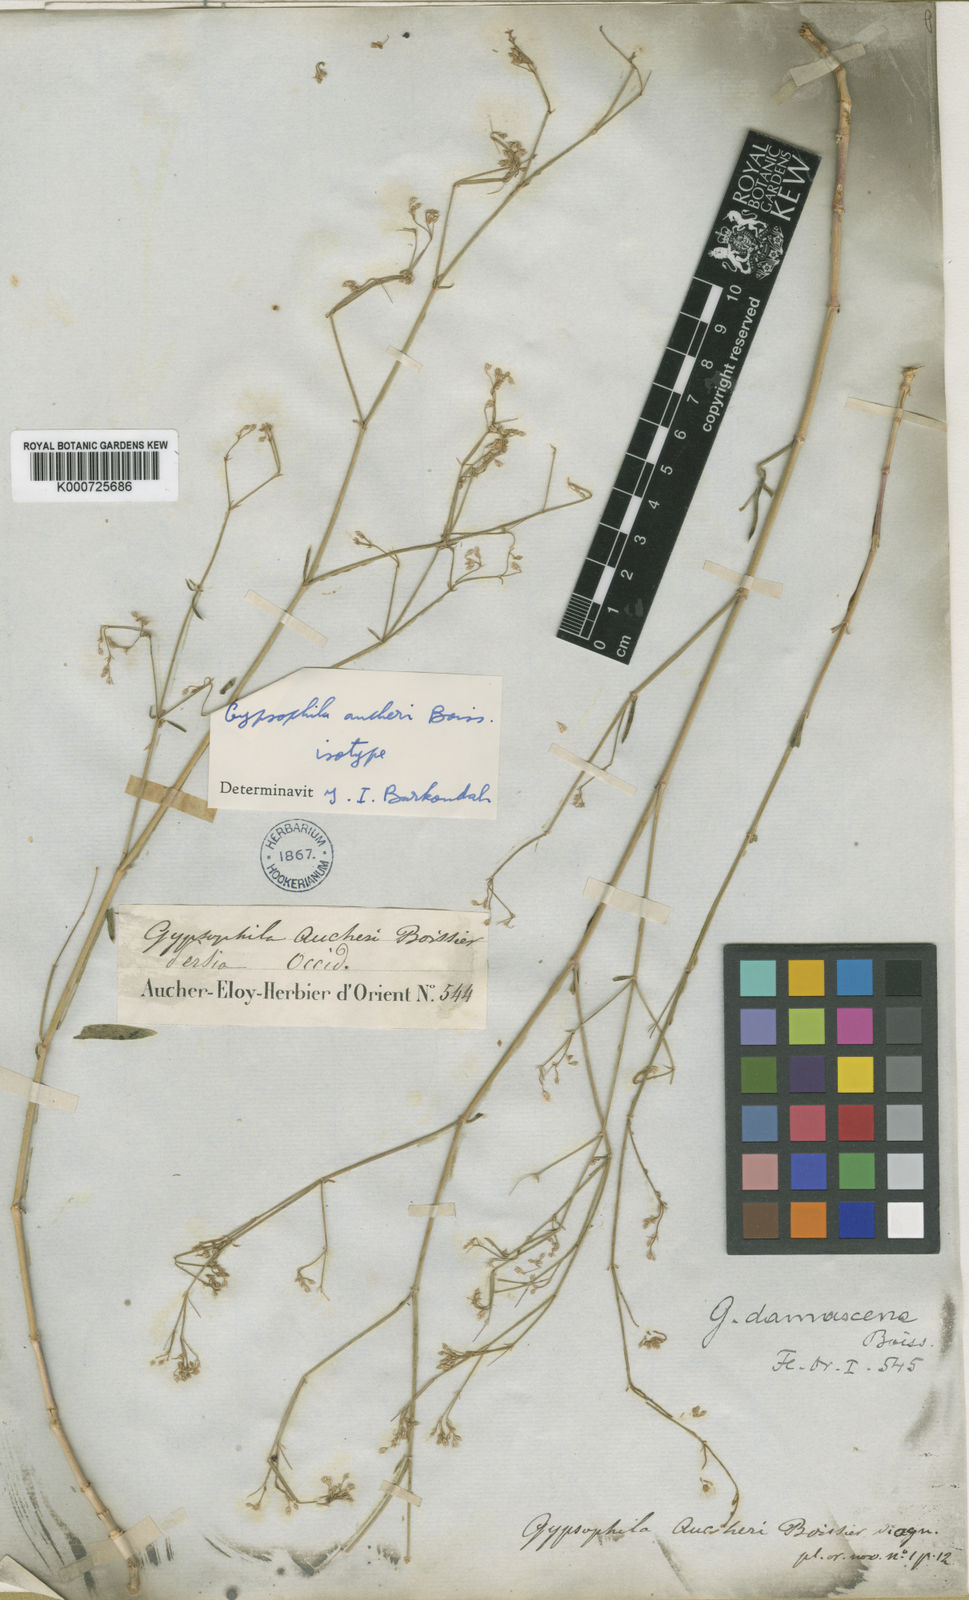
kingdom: Plantae
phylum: Tracheophyta
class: Magnoliopsida
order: Caryophyllales
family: Caryophyllaceae
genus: Gypsophila
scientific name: Gypsophila aucheri
